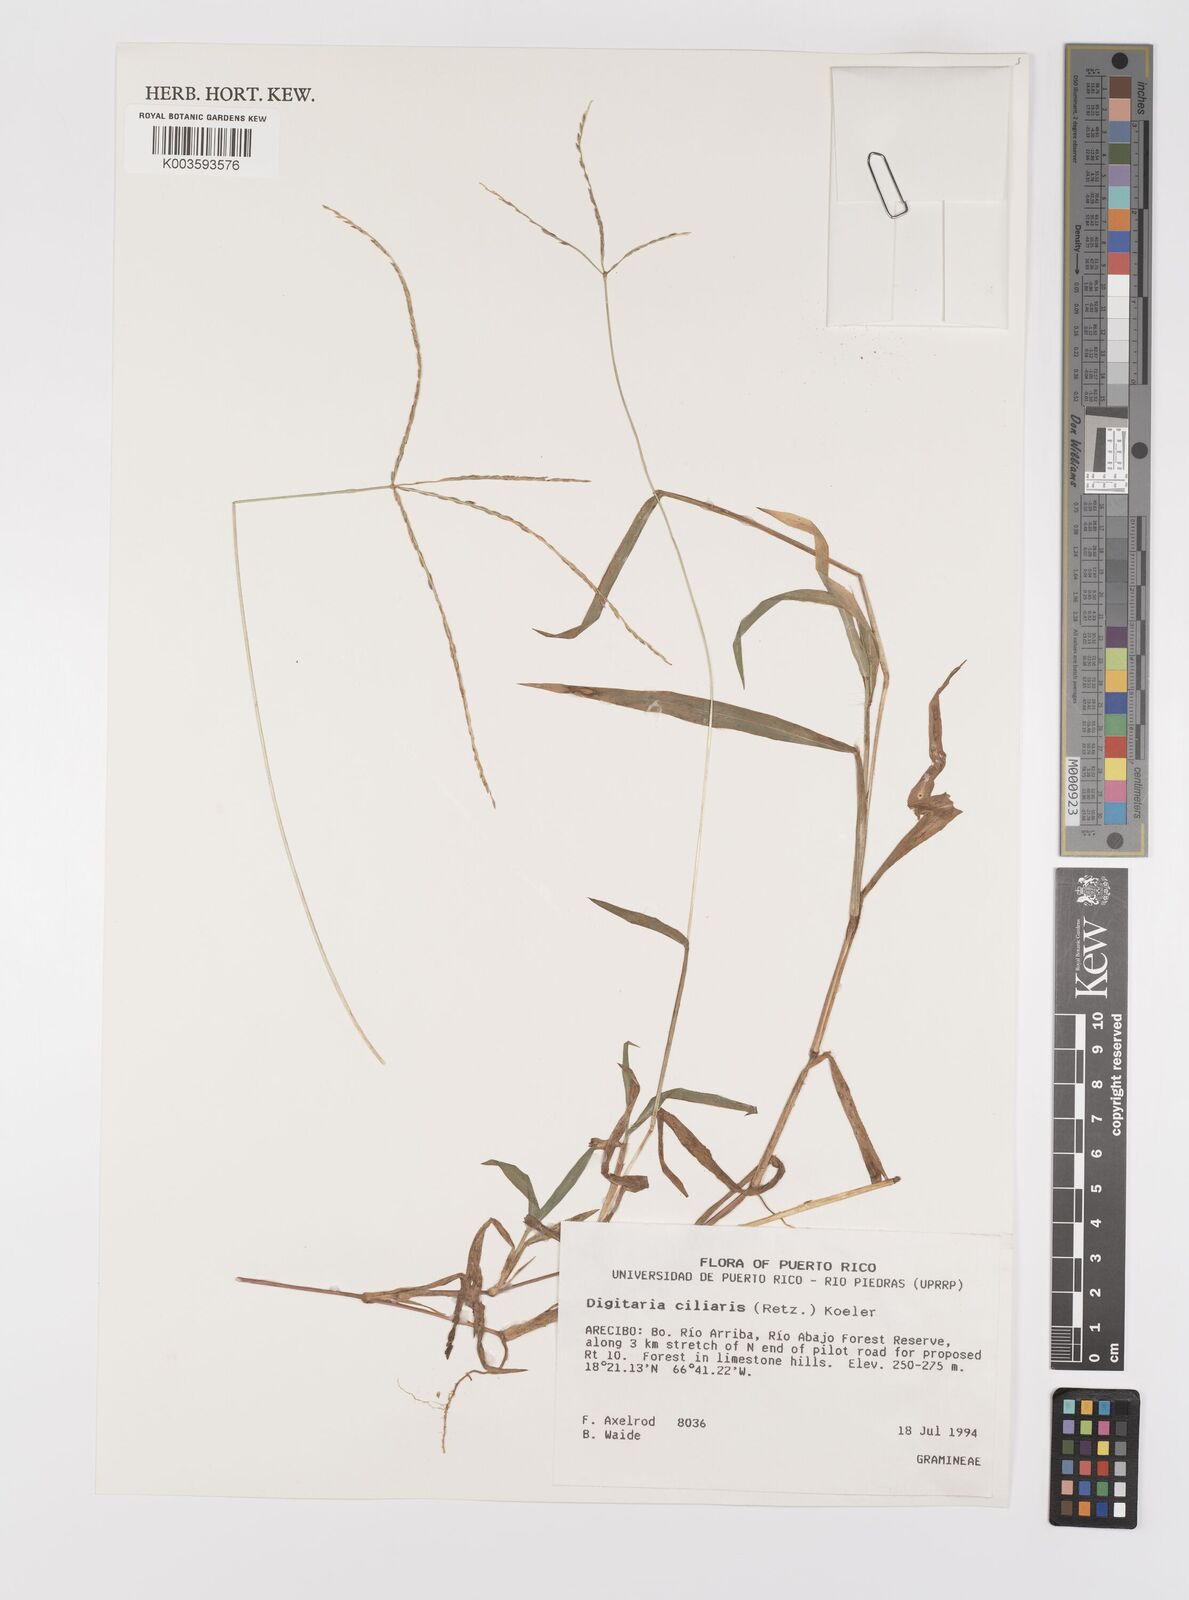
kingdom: Plantae
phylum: Tracheophyta
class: Liliopsida
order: Poales
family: Poaceae
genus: Digitaria
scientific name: Digitaria ciliaris
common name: Tropical finger-grass
